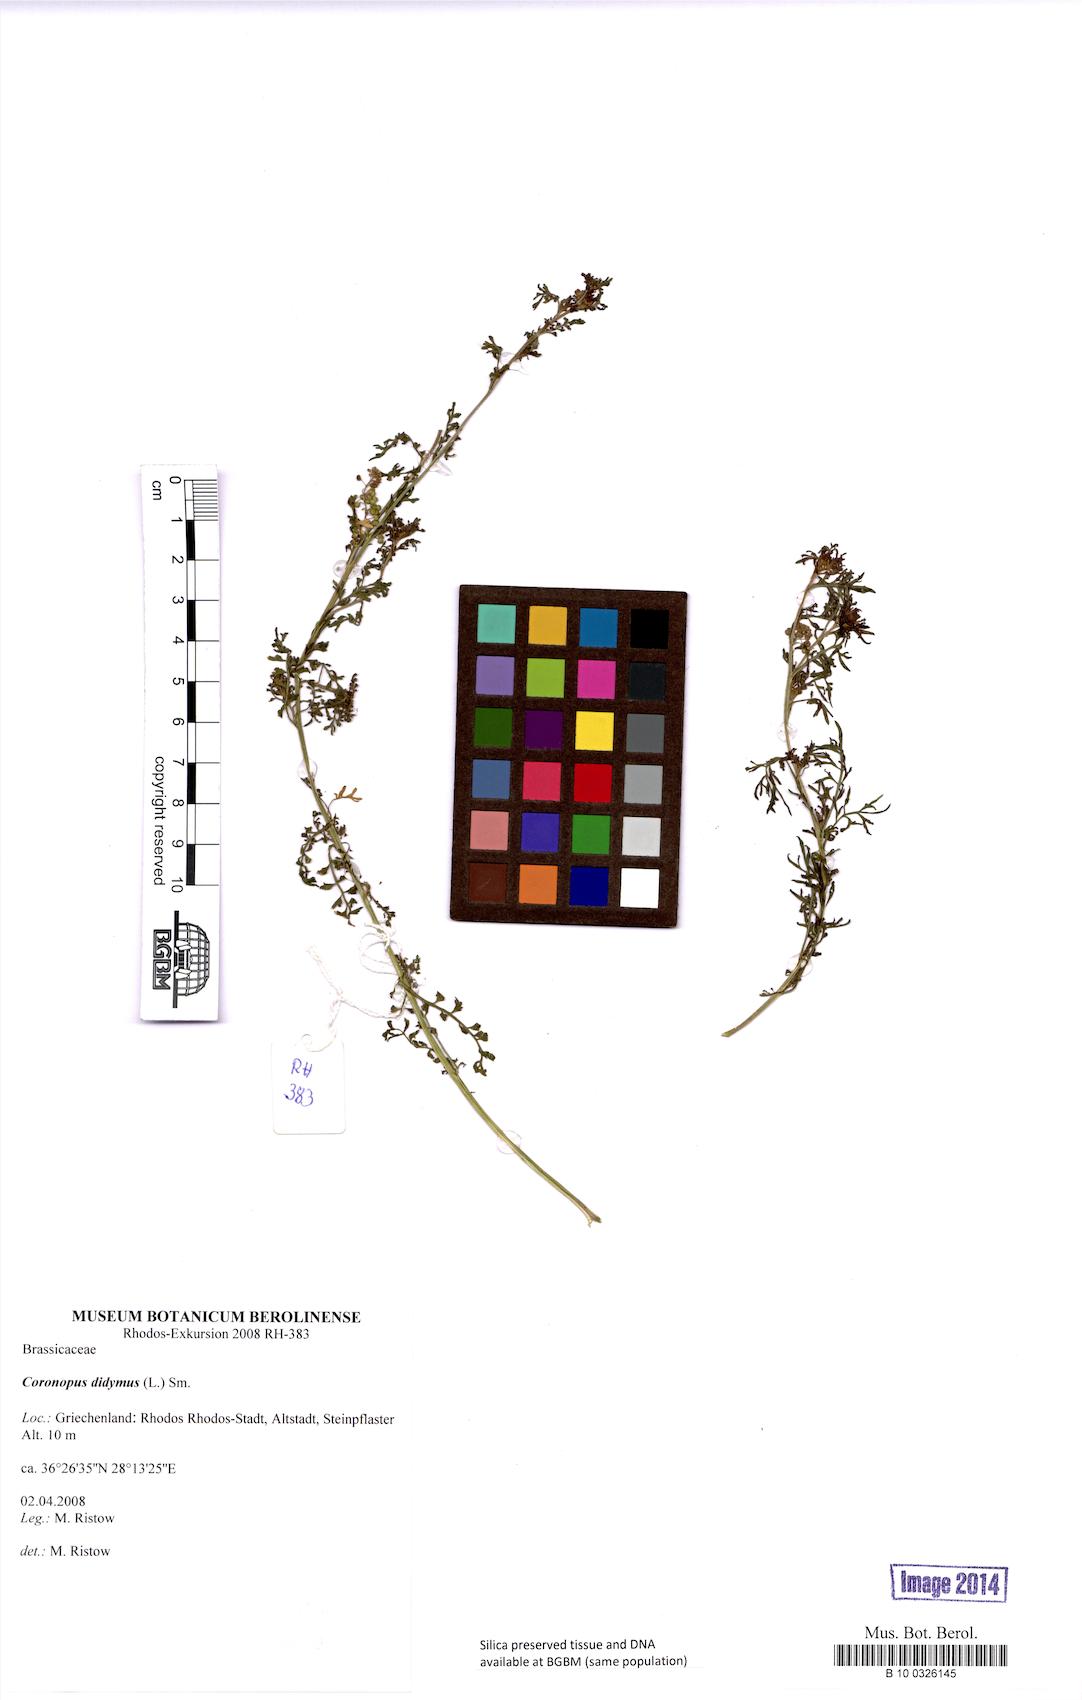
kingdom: Plantae
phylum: Tracheophyta
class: Magnoliopsida
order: Brassicales
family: Brassicaceae
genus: Lepidium
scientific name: Lepidium didymum
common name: Lesser swinecress
